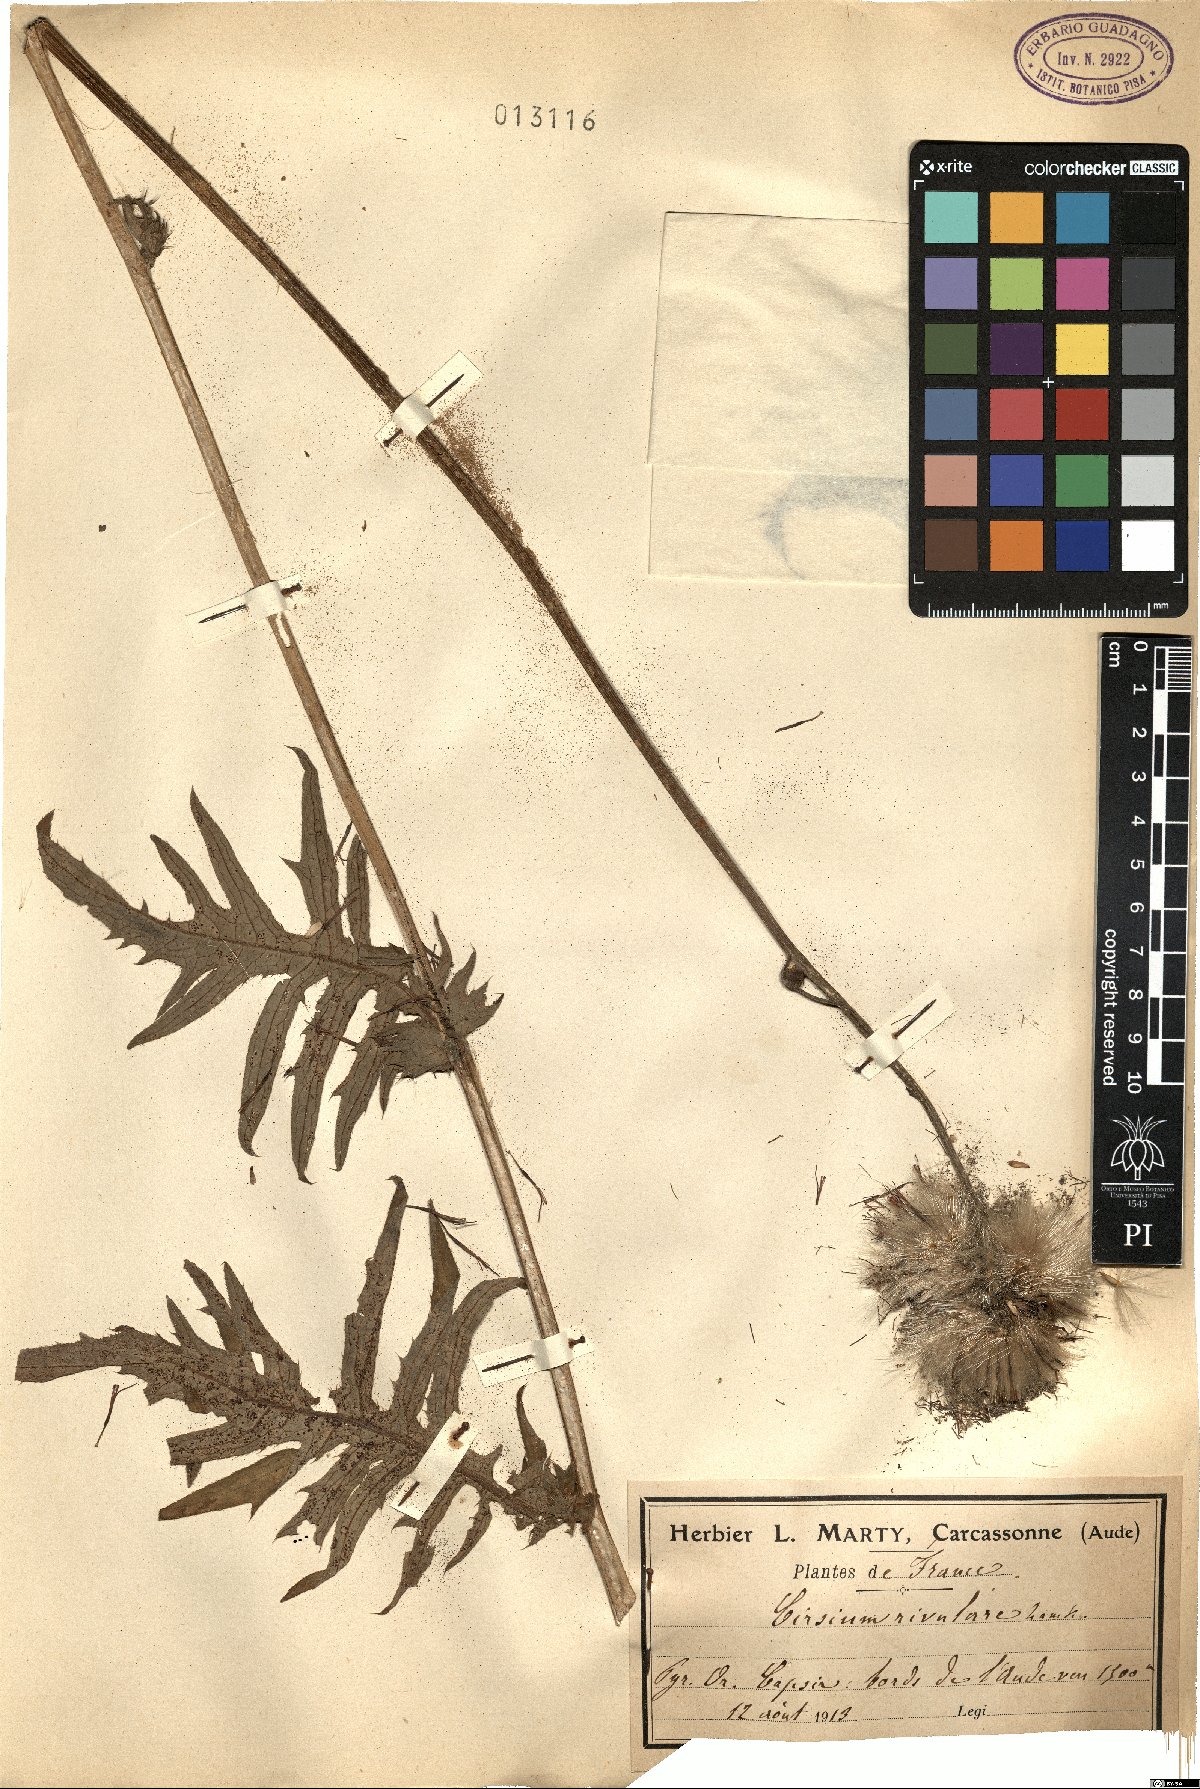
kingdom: Plantae
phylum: Tracheophyta
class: Magnoliopsida
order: Asterales
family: Asteraceae
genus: Cirsium
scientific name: Cirsium rivulare
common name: Brook thistle
